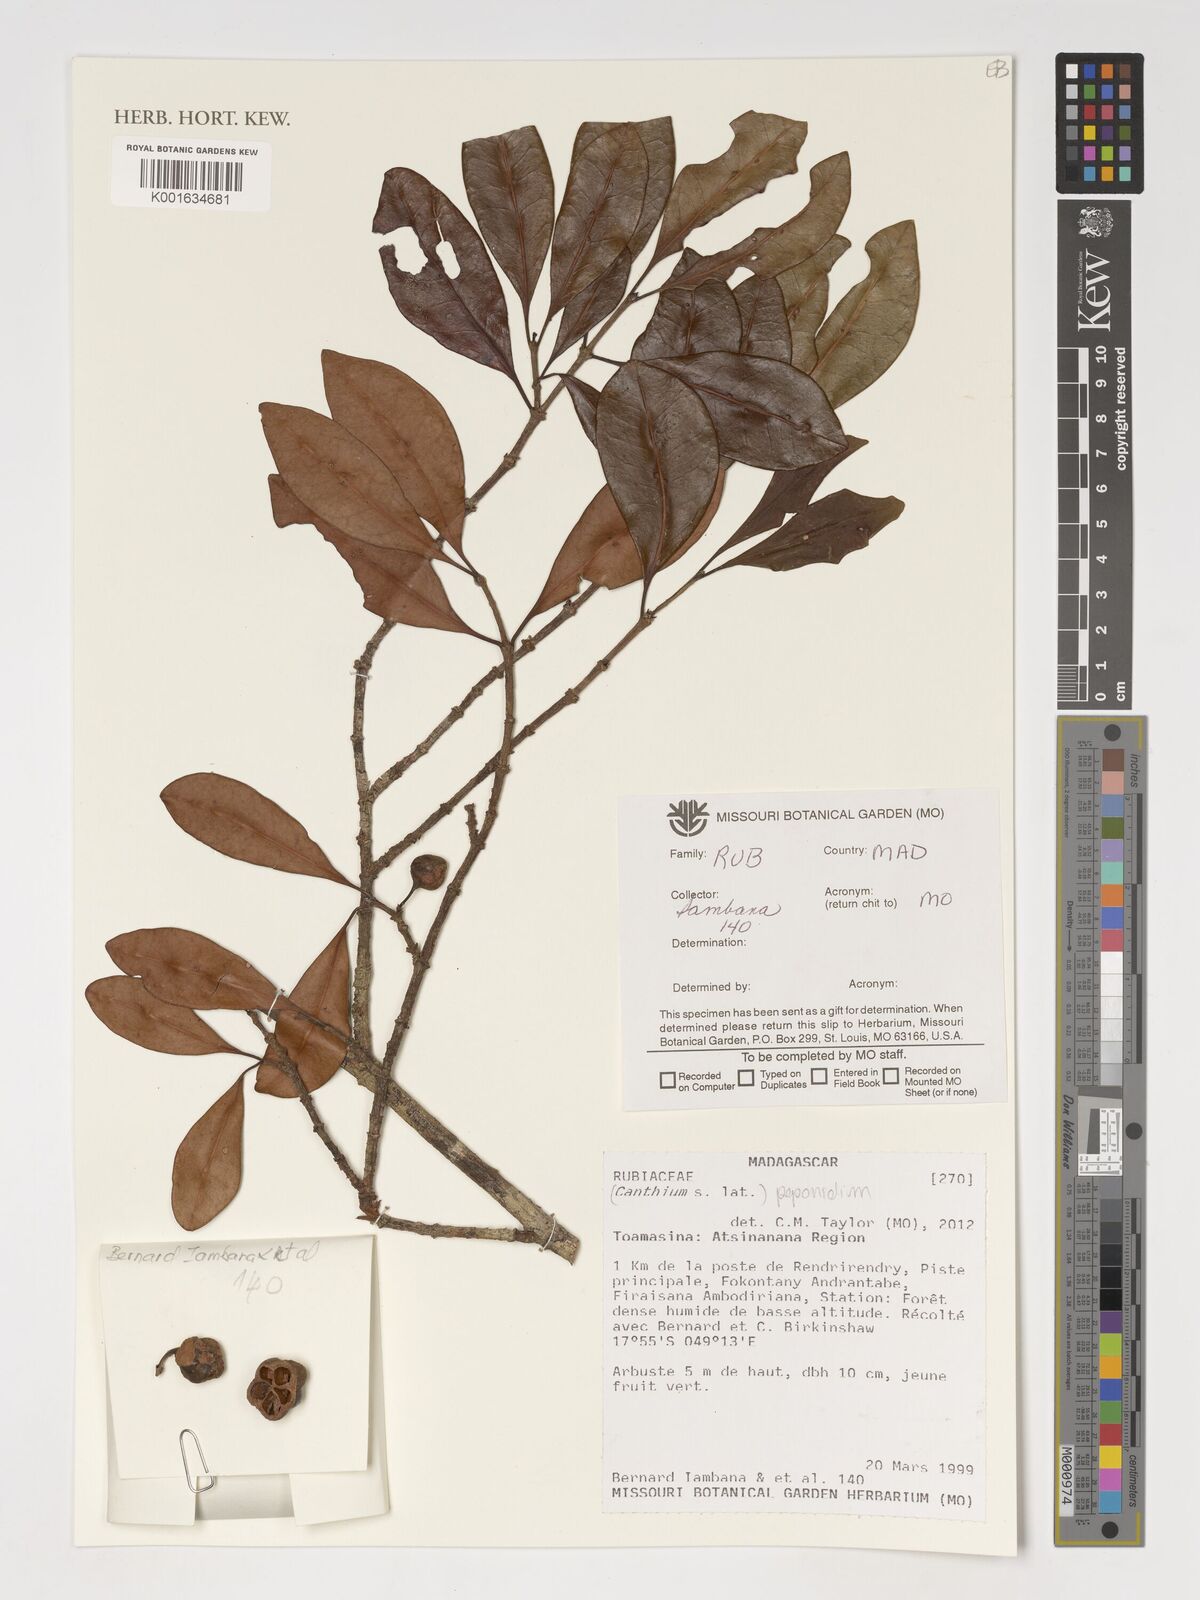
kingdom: Plantae
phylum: Tracheophyta
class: Magnoliopsida
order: Gentianales
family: Rubiaceae
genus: Peponidium
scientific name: Peponidium
